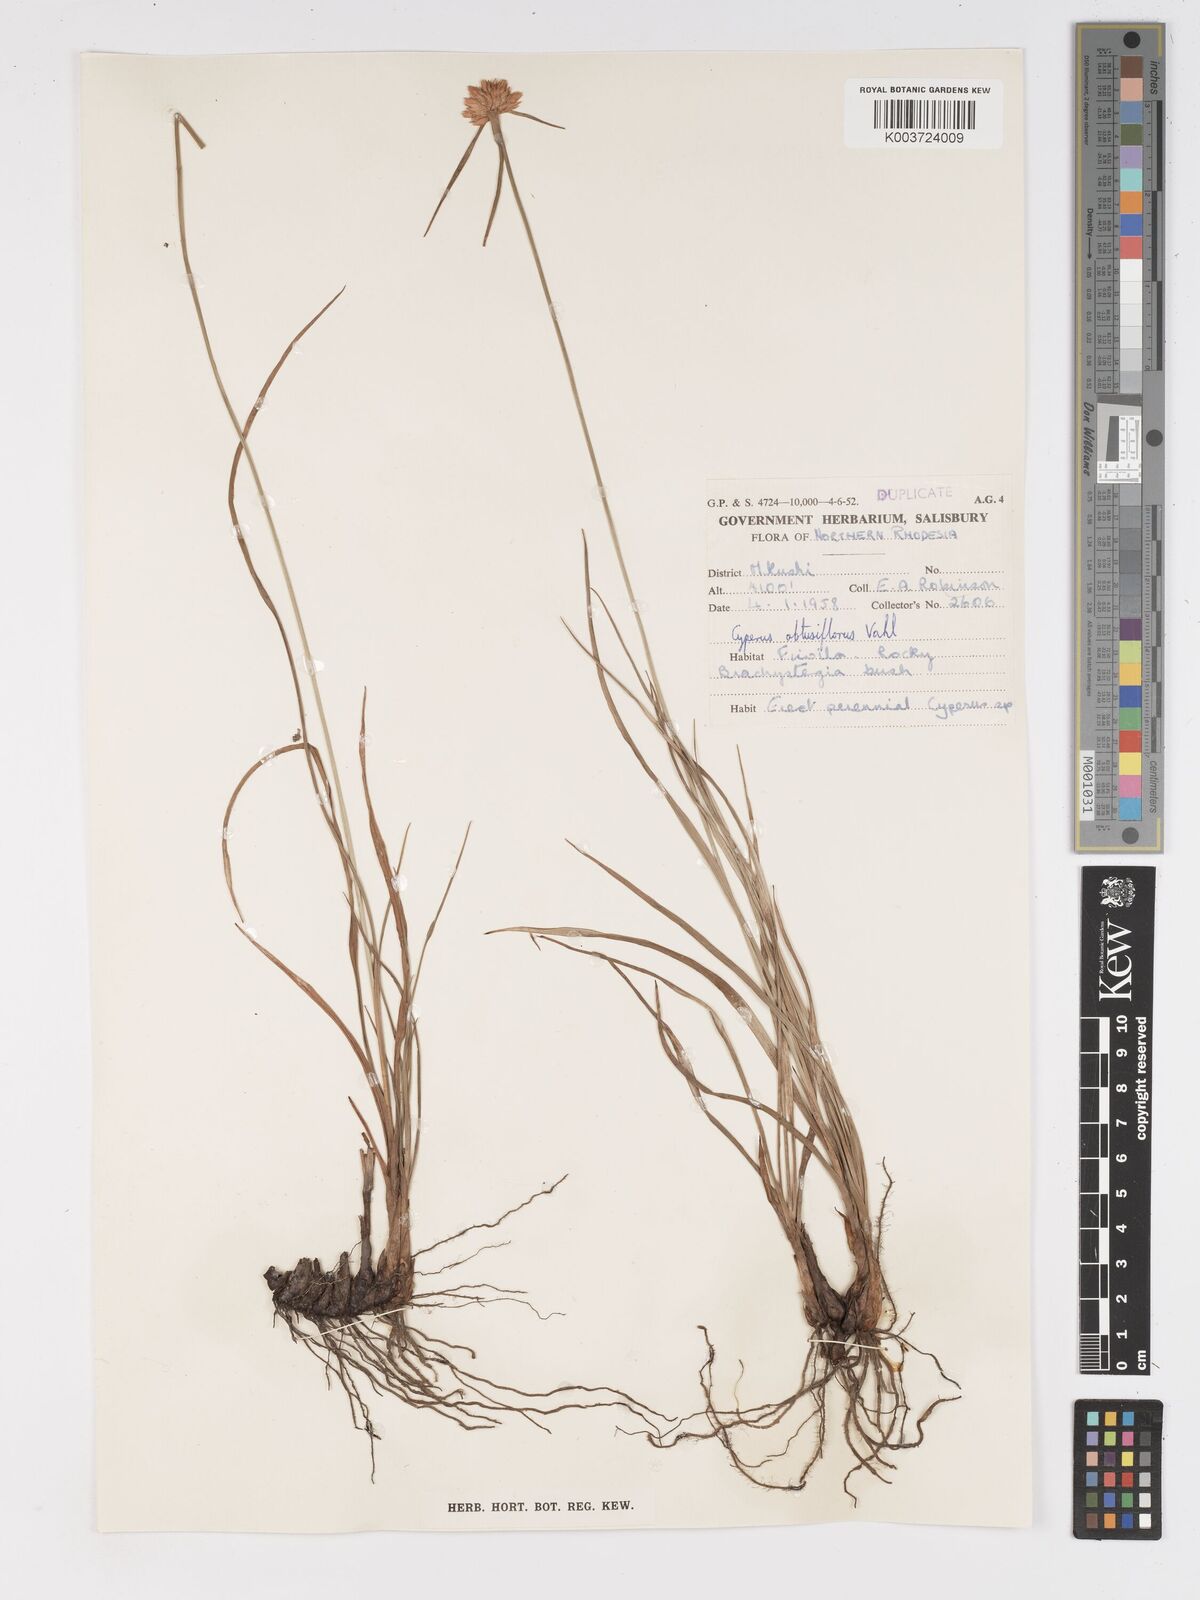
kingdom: Plantae
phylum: Tracheophyta
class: Liliopsida
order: Poales
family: Cyperaceae
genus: Cyperus
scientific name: Cyperus niveus
